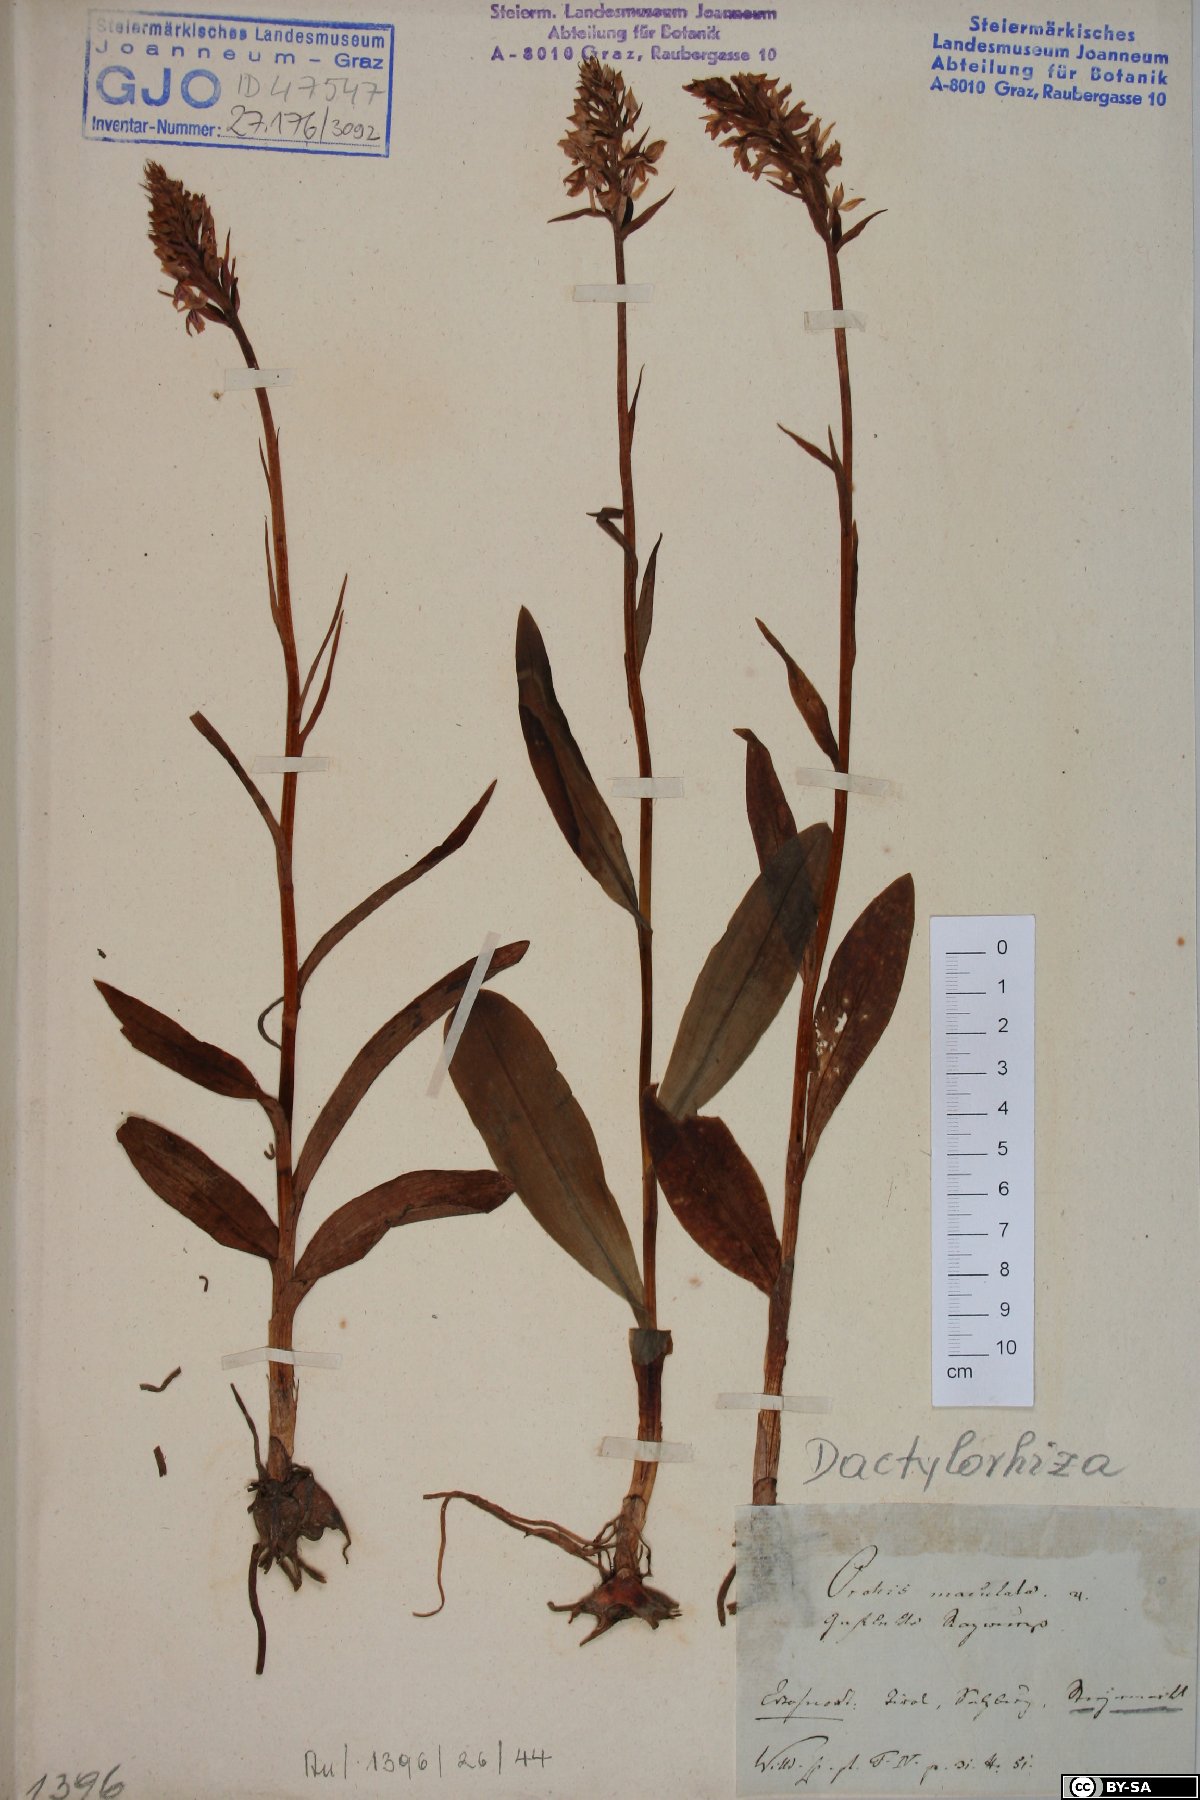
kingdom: Plantae
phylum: Tracheophyta
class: Liliopsida
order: Asparagales
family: Orchidaceae
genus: Dactylorhiza
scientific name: Dactylorhiza maculata
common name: Heath spotted-orchid
